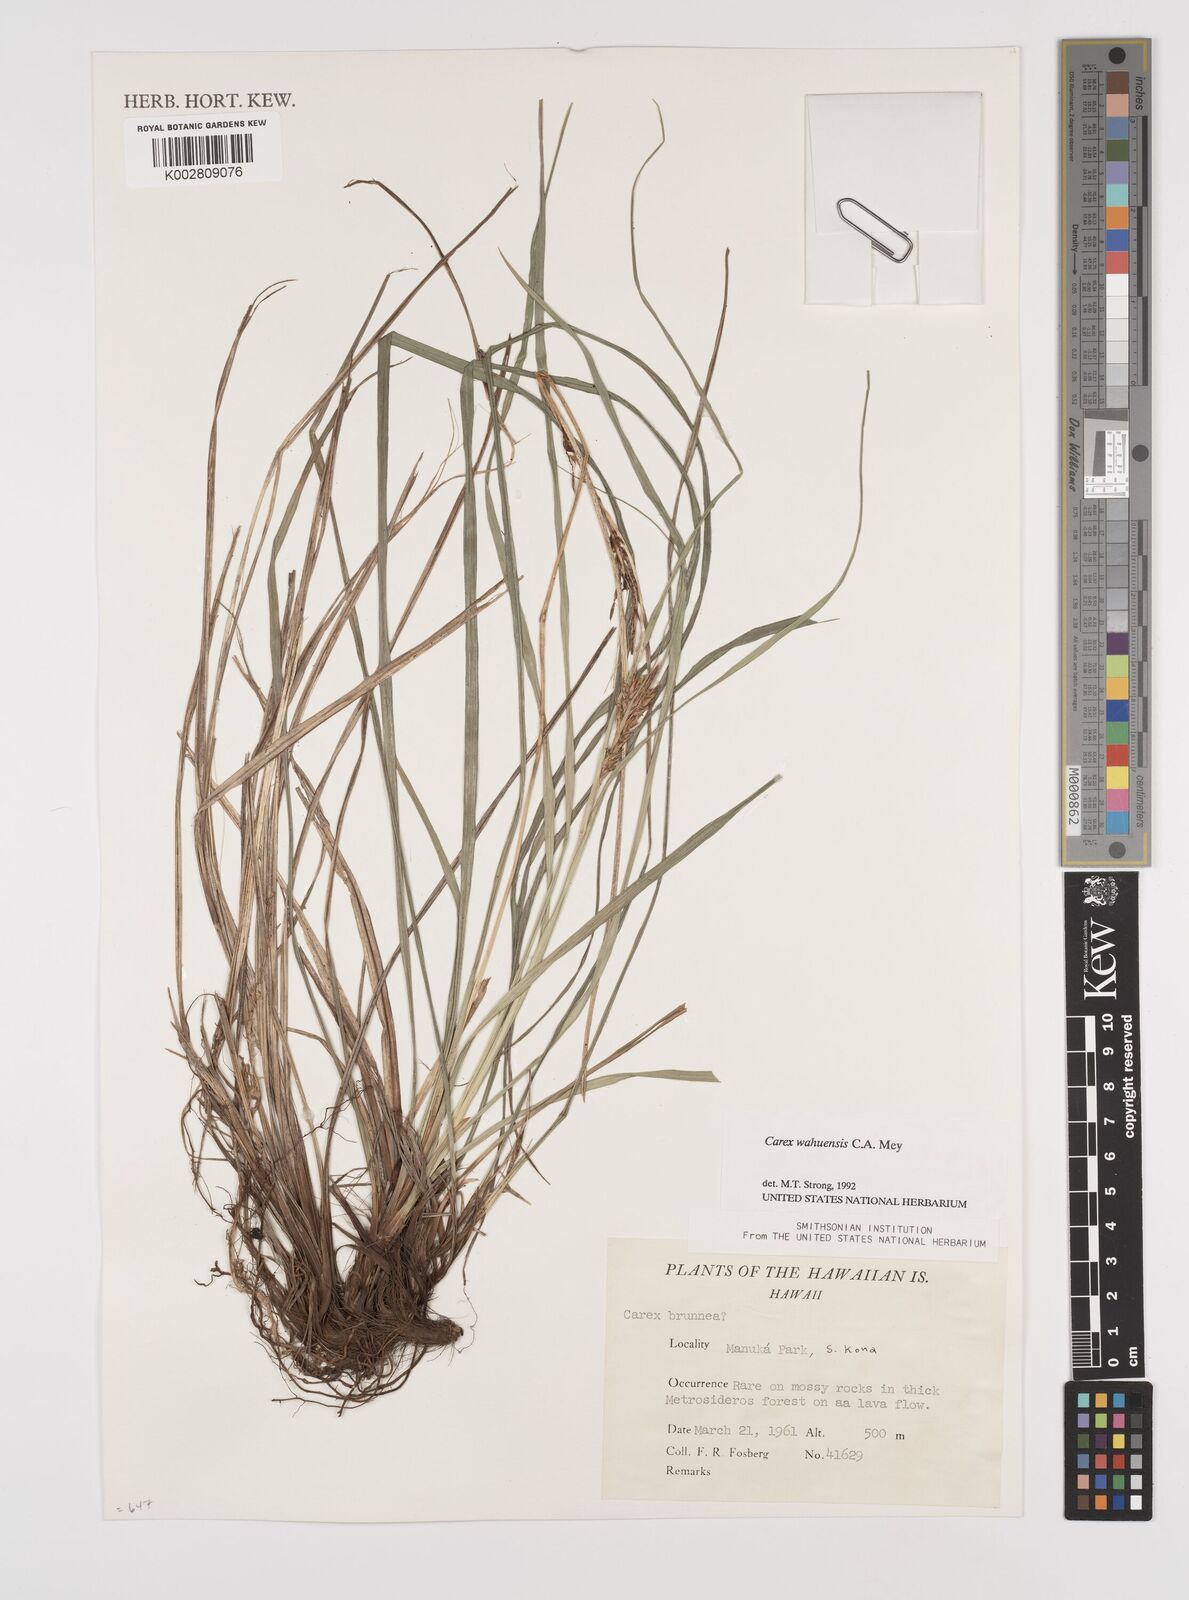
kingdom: Plantae
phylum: Tracheophyta
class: Liliopsida
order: Poales
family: Cyperaceae
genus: Carex
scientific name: Carex wahuensis
